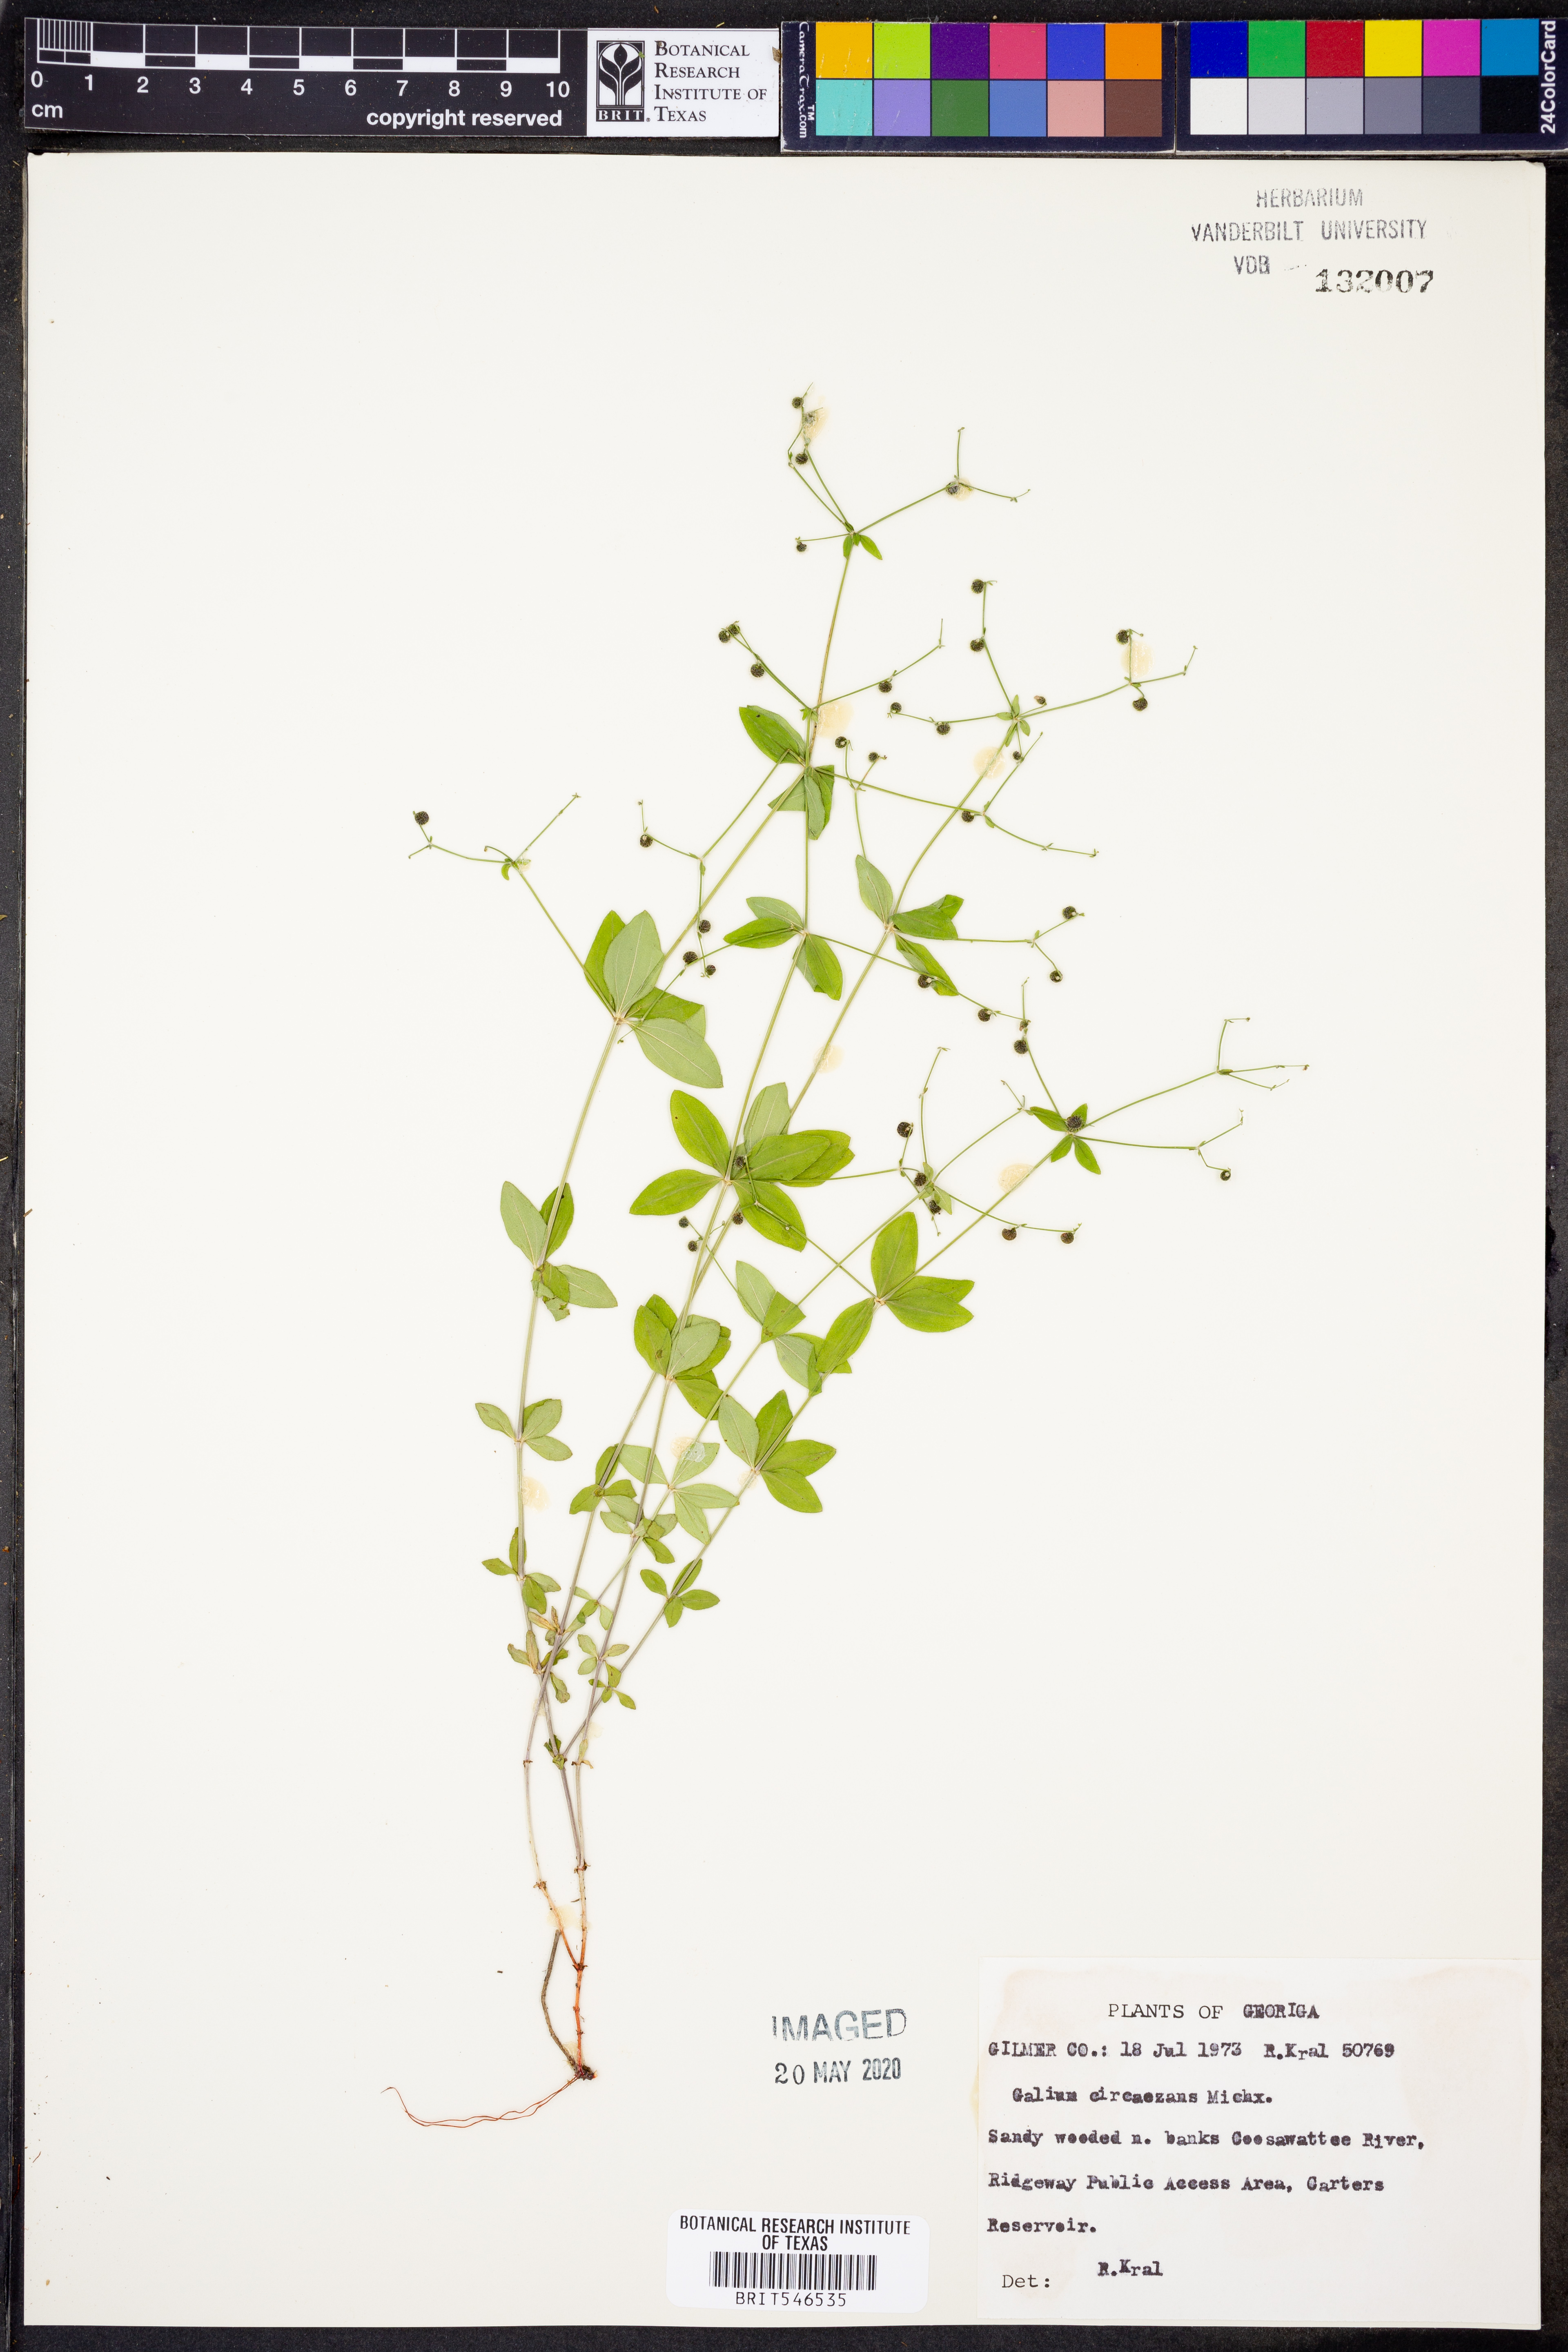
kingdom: Plantae
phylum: Tracheophyta
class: Magnoliopsida
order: Gentianales
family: Rubiaceae
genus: Galium
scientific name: Galium circaezans
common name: Forest bedstraw
